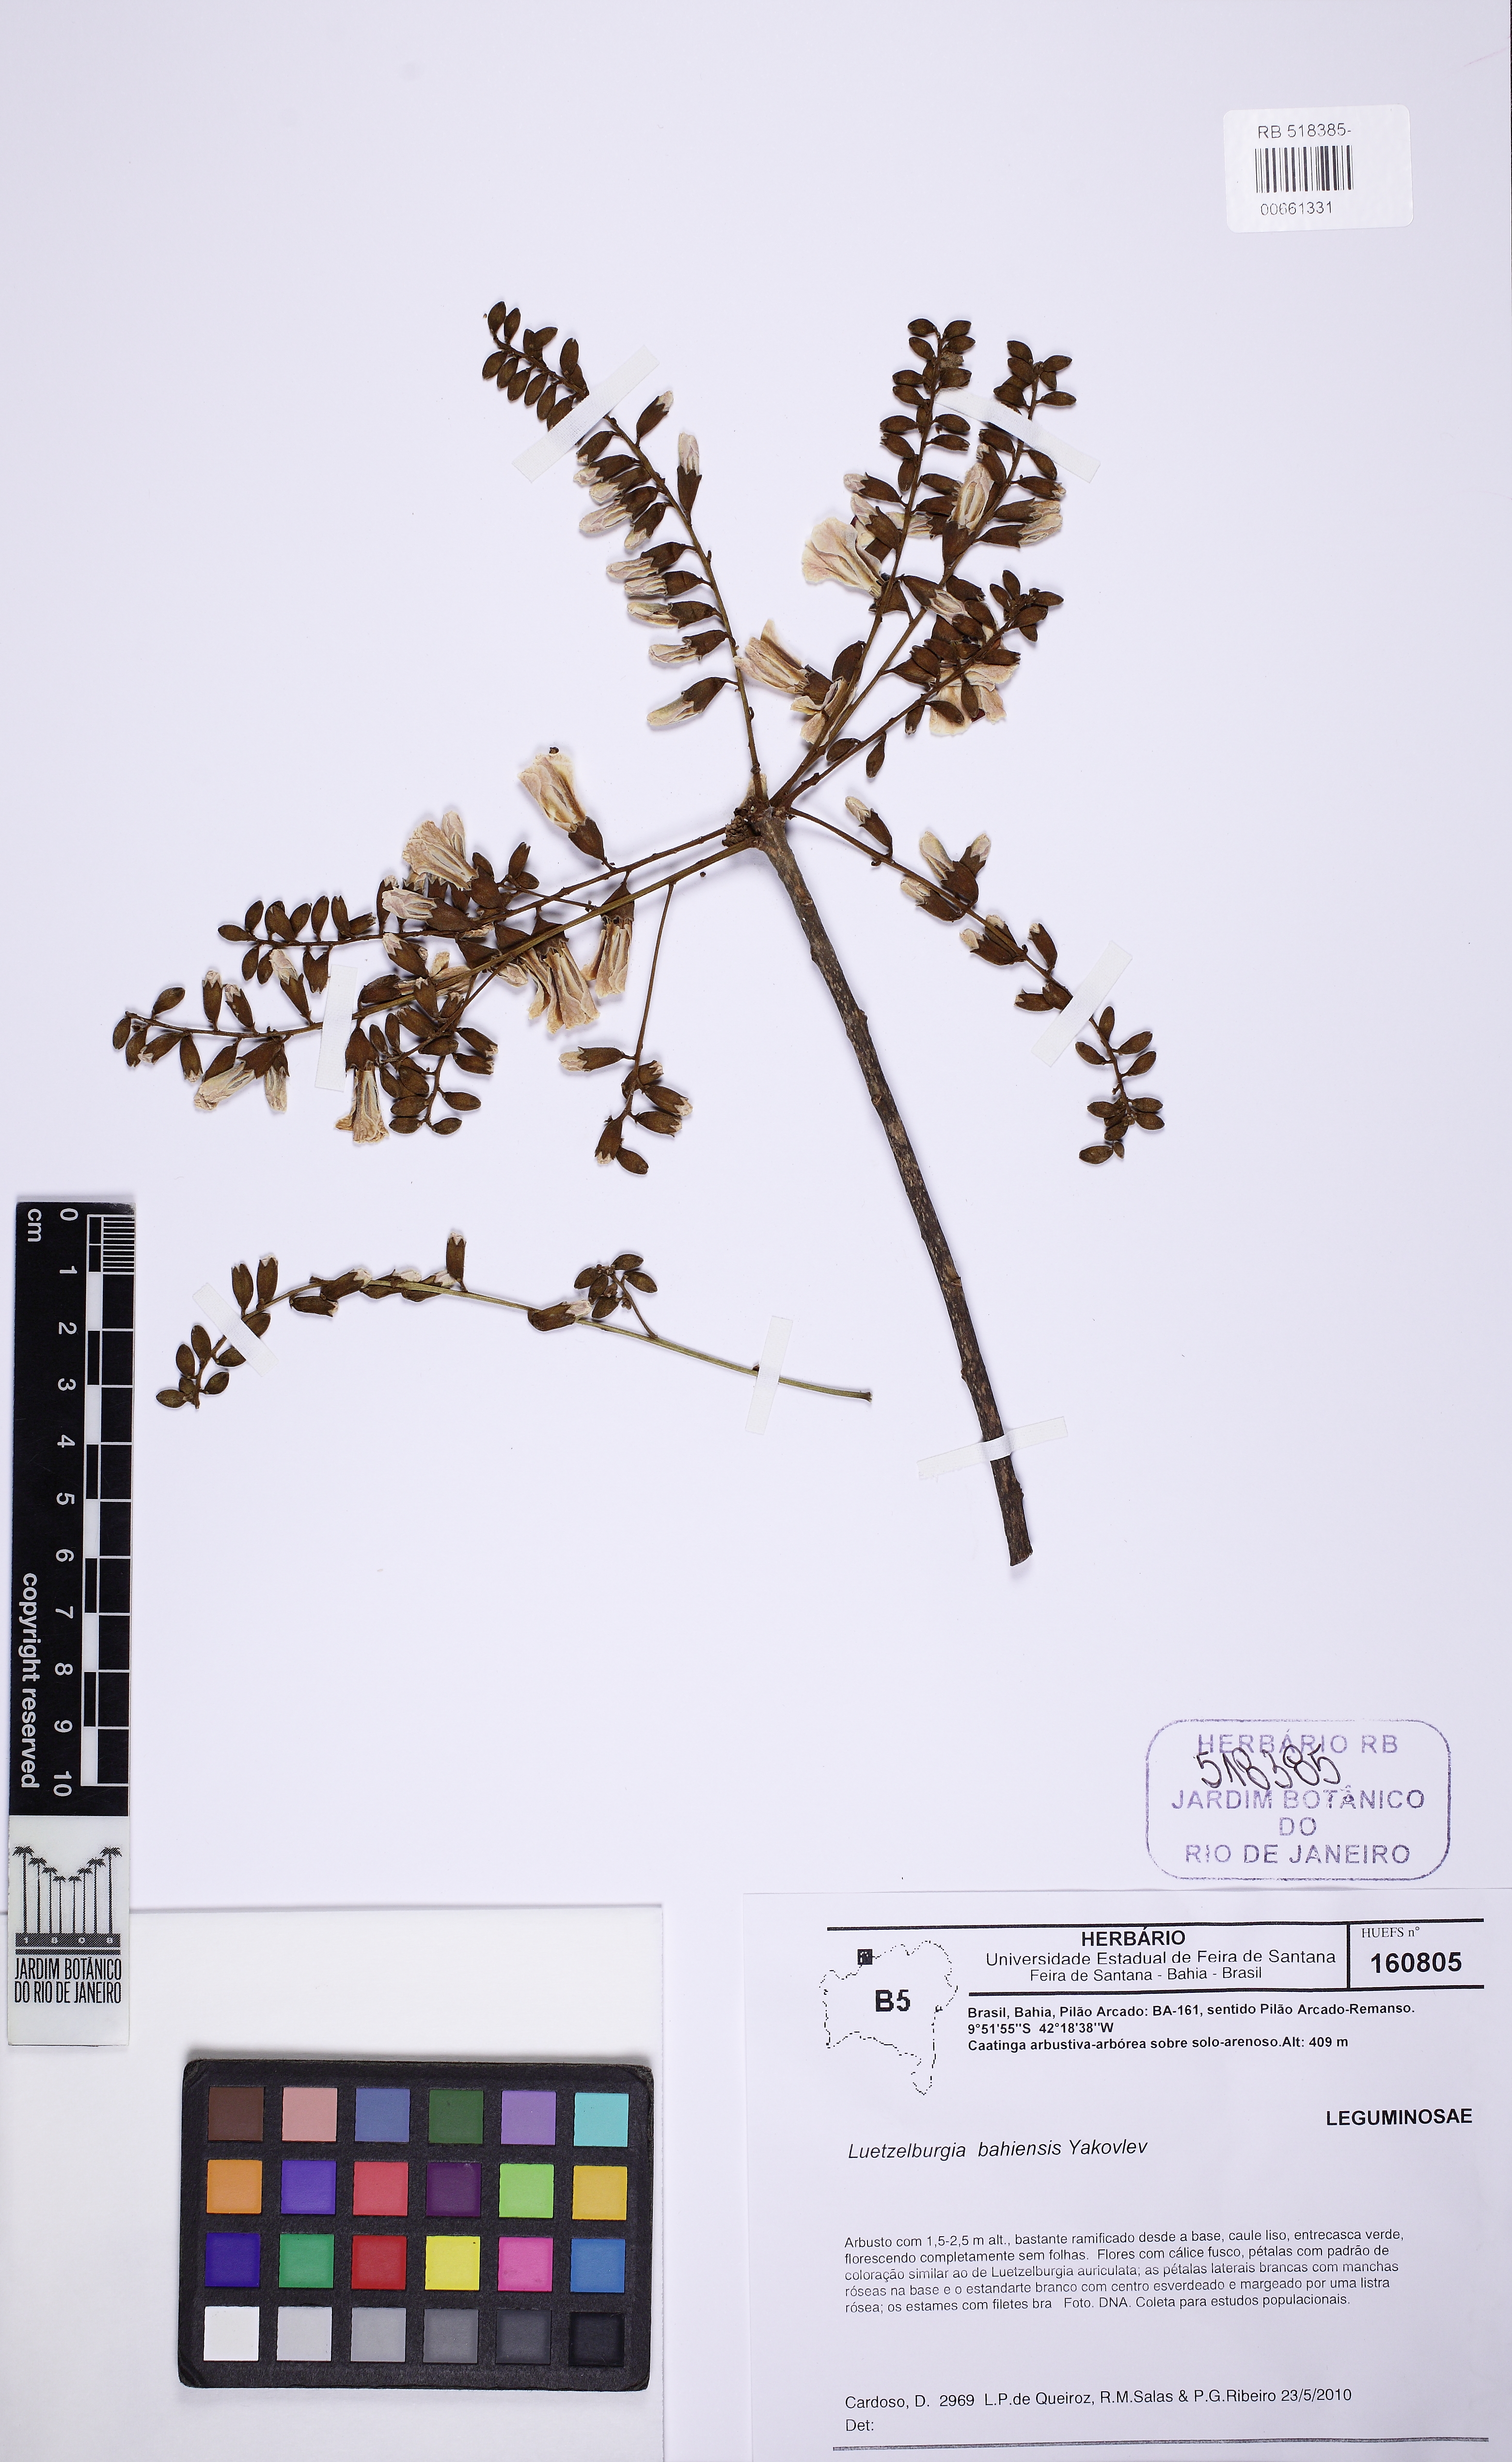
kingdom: Plantae
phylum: Tracheophyta
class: Magnoliopsida
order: Fabales
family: Fabaceae
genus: Luetzelburgia
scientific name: Luetzelburgia bahiensis
